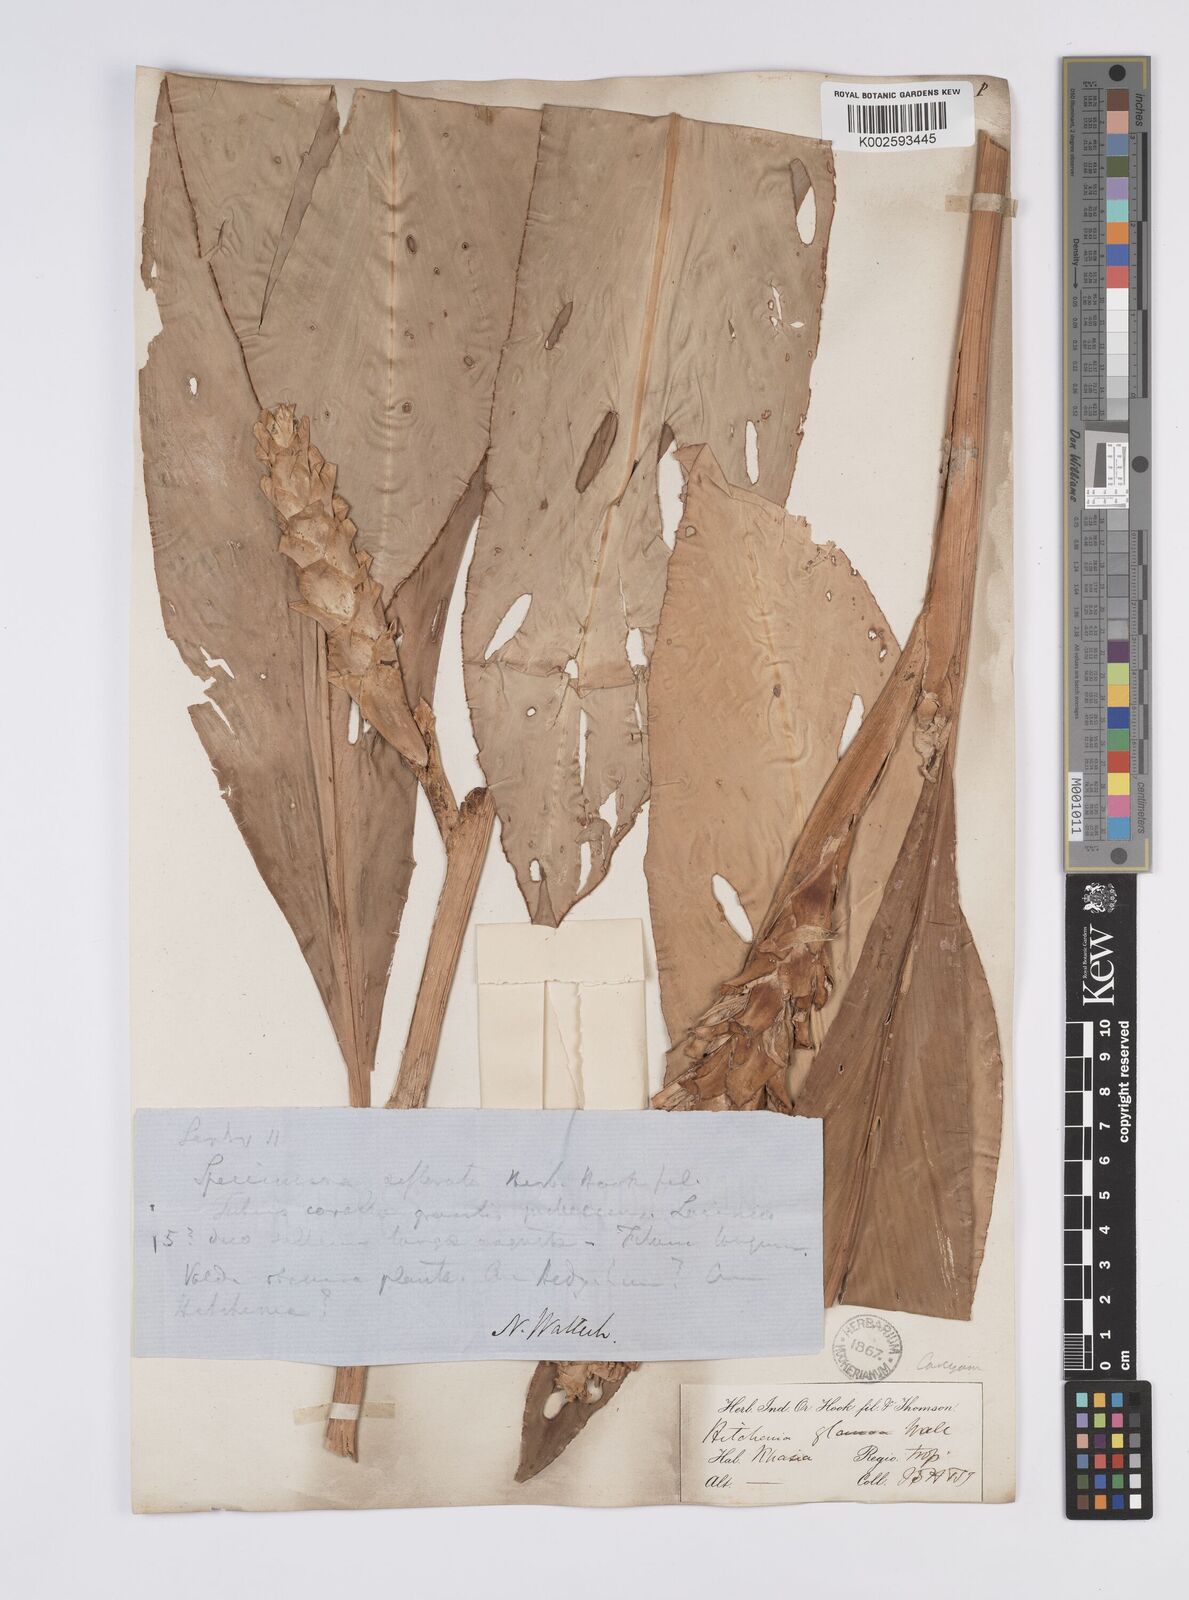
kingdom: Plantae
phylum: Tracheophyta
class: Liliopsida
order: Zingiberales
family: Zingiberaceae
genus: Larsenianthus
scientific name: Larsenianthus careyanus
